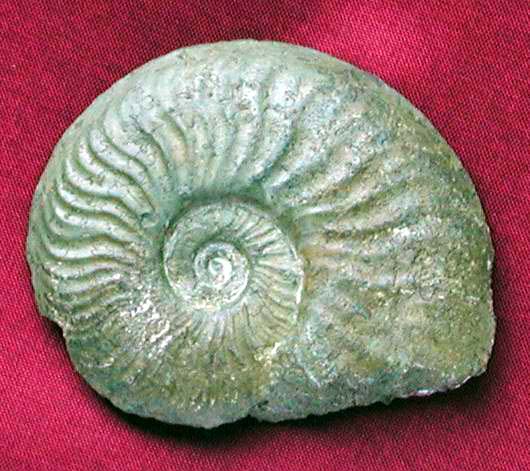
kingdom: Animalia
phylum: Mollusca
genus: Walkericeras
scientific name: Walkericeras
